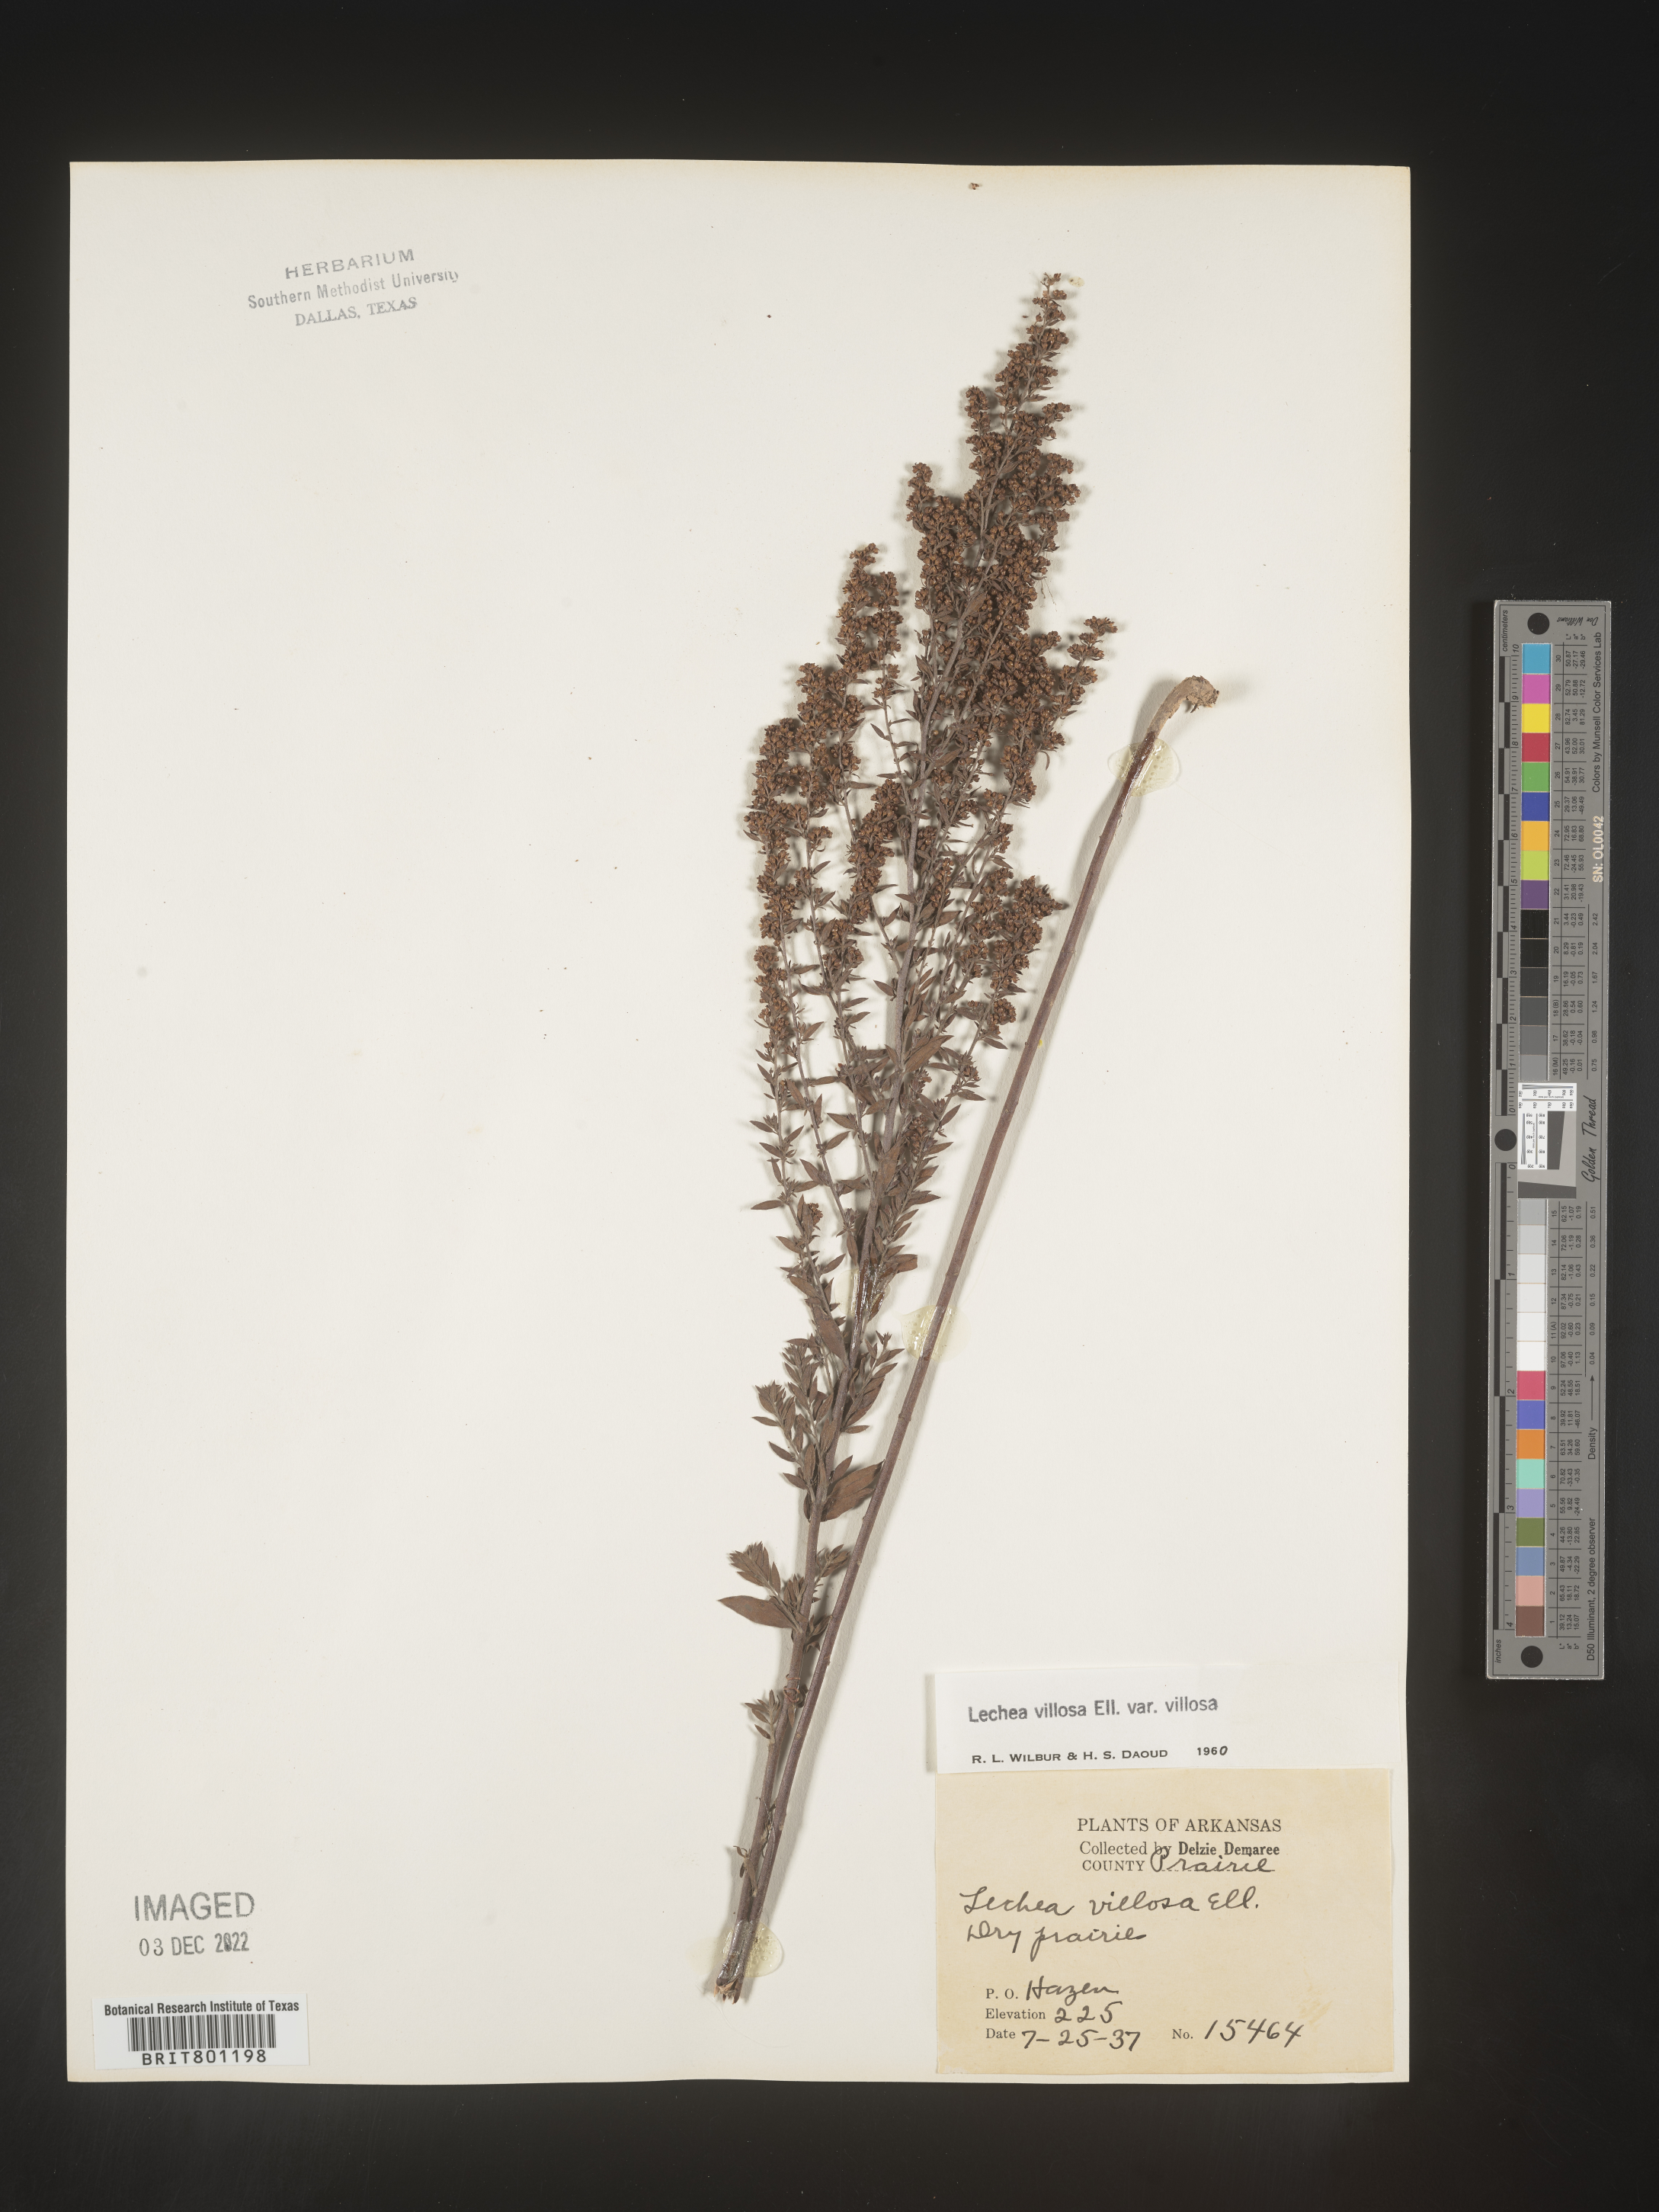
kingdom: Plantae
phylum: Tracheophyta
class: Magnoliopsida
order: Malvales
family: Cistaceae
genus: Lechea
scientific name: Lechea mucronata
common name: Hairy pinweed
